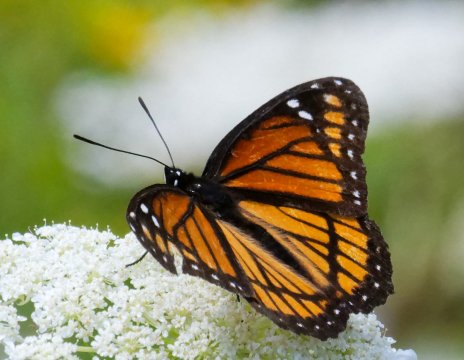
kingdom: Animalia
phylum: Arthropoda
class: Insecta
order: Lepidoptera
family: Nymphalidae
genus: Limenitis
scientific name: Limenitis archippus
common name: Viceroy
